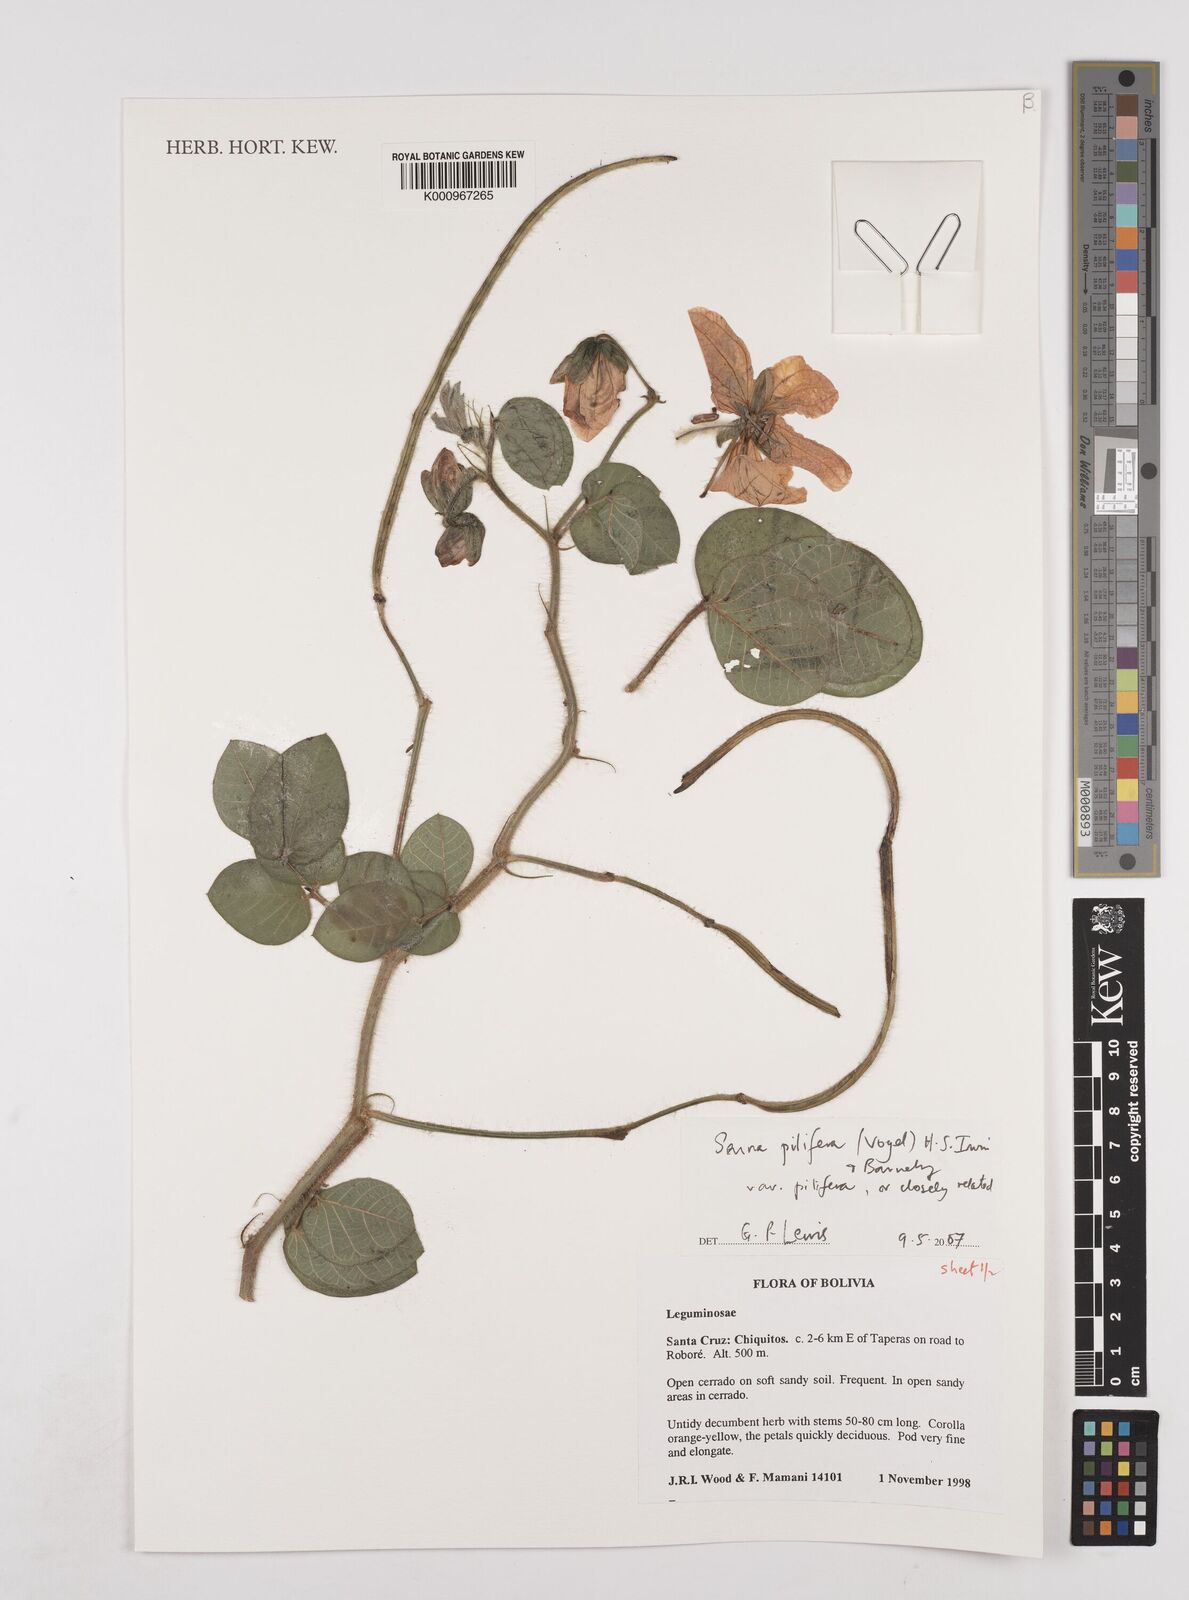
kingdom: Plantae
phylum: Tracheophyta
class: Magnoliopsida
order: Fabales
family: Fabaceae
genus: Senna
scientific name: Senna pilifera
